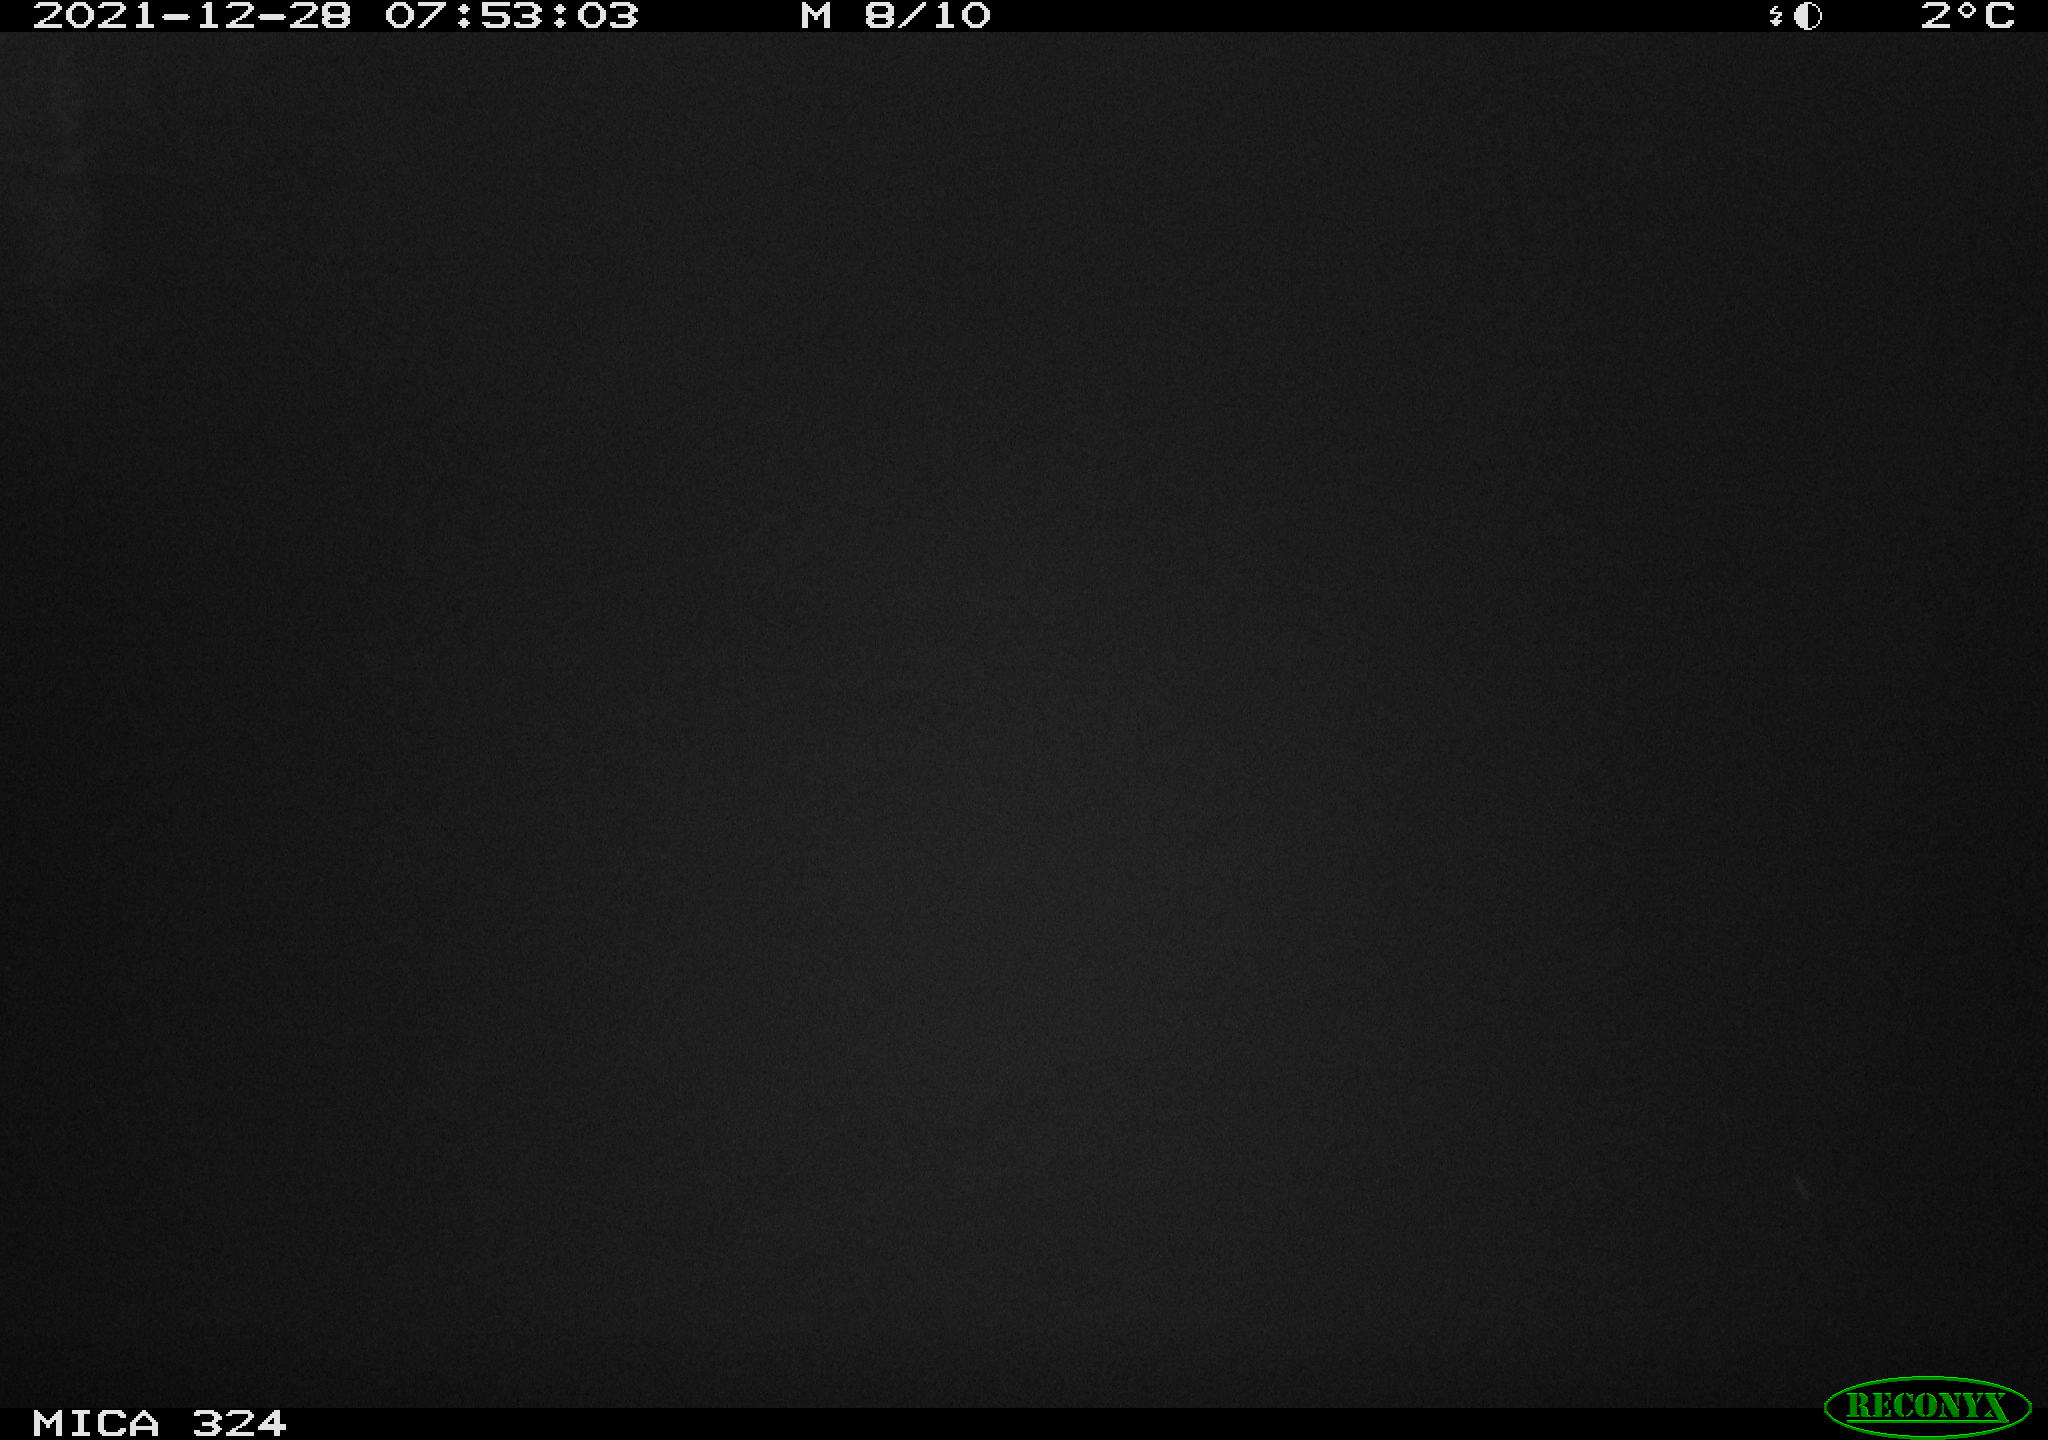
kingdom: Animalia
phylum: Chordata
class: Mammalia
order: Rodentia
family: Cricetidae
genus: Ondatra
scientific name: Ondatra zibethicus
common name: Muskrat
